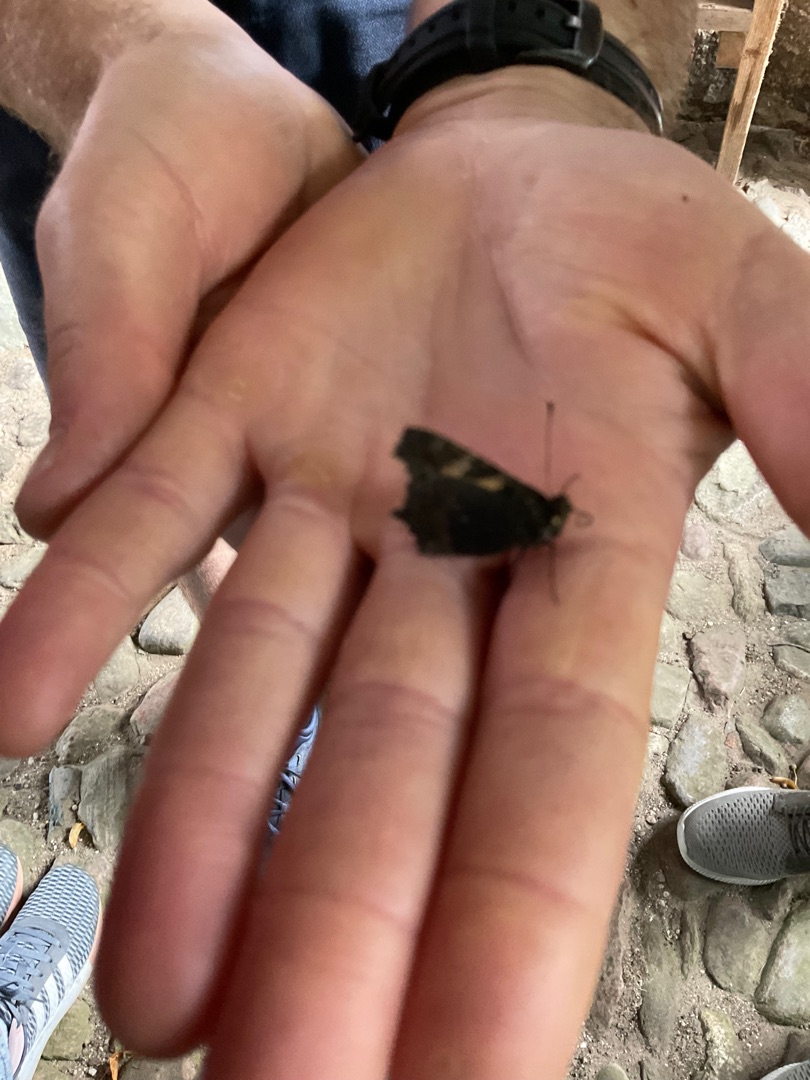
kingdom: Animalia
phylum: Arthropoda
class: Insecta
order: Lepidoptera
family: Nymphalidae
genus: Aglais
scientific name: Aglais urticae
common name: Nældens takvinge
